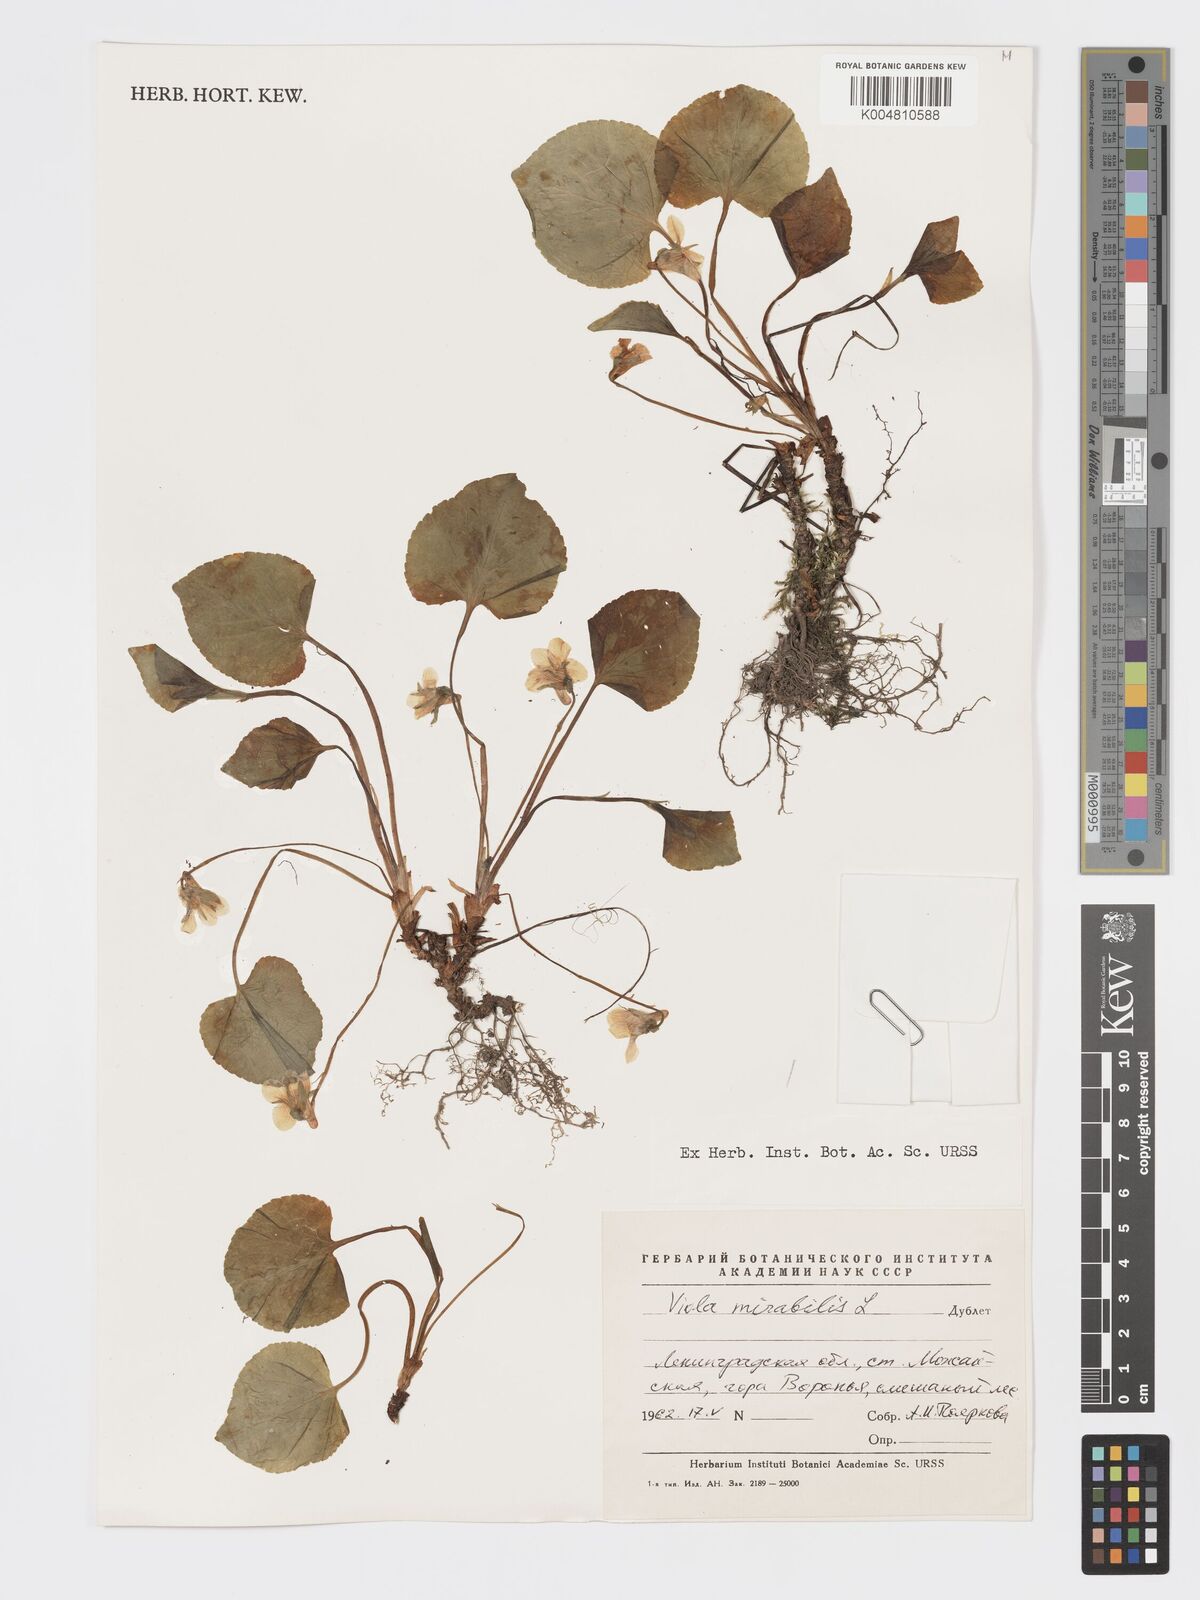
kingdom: Plantae
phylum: Tracheophyta
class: Magnoliopsida
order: Malpighiales
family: Violaceae
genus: Viola
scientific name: Viola mirabilis
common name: Wonder violet
